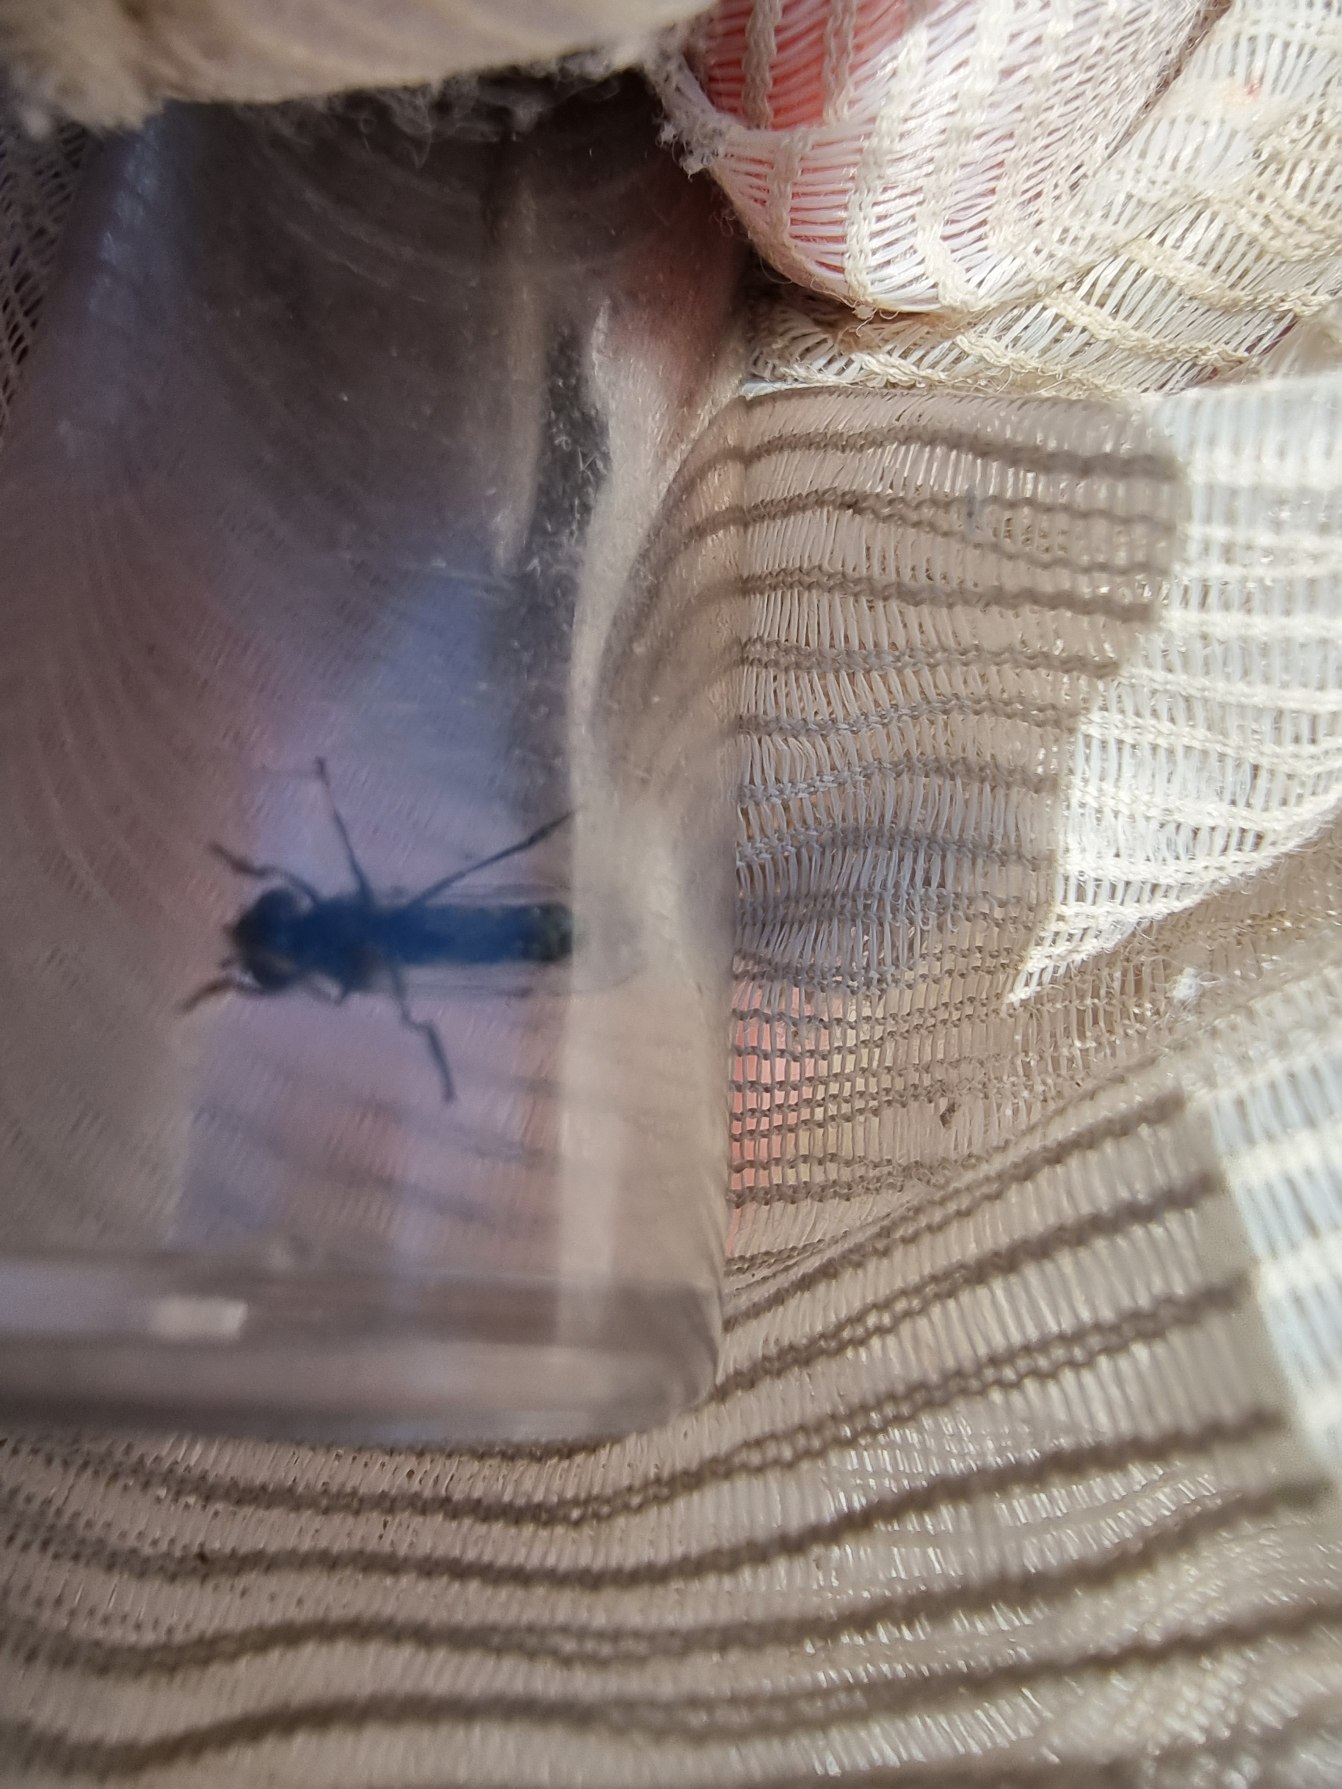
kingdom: Animalia
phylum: Arthropoda
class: Insecta
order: Diptera
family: Syrphidae
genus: Platycheirus
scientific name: Platycheirus discimanus
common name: Skive-bredfodsflue
